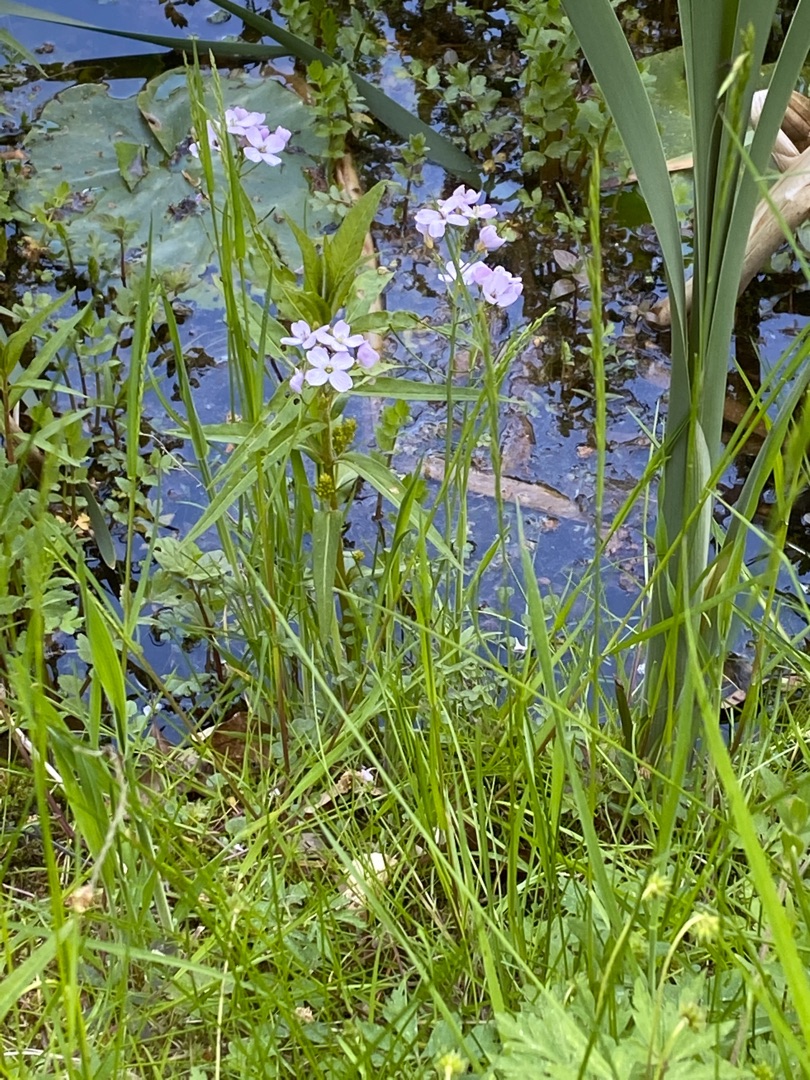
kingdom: Plantae
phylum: Tracheophyta
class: Magnoliopsida
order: Brassicales
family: Brassicaceae
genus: Cardamine
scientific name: Cardamine pratensis
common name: Engkarse
